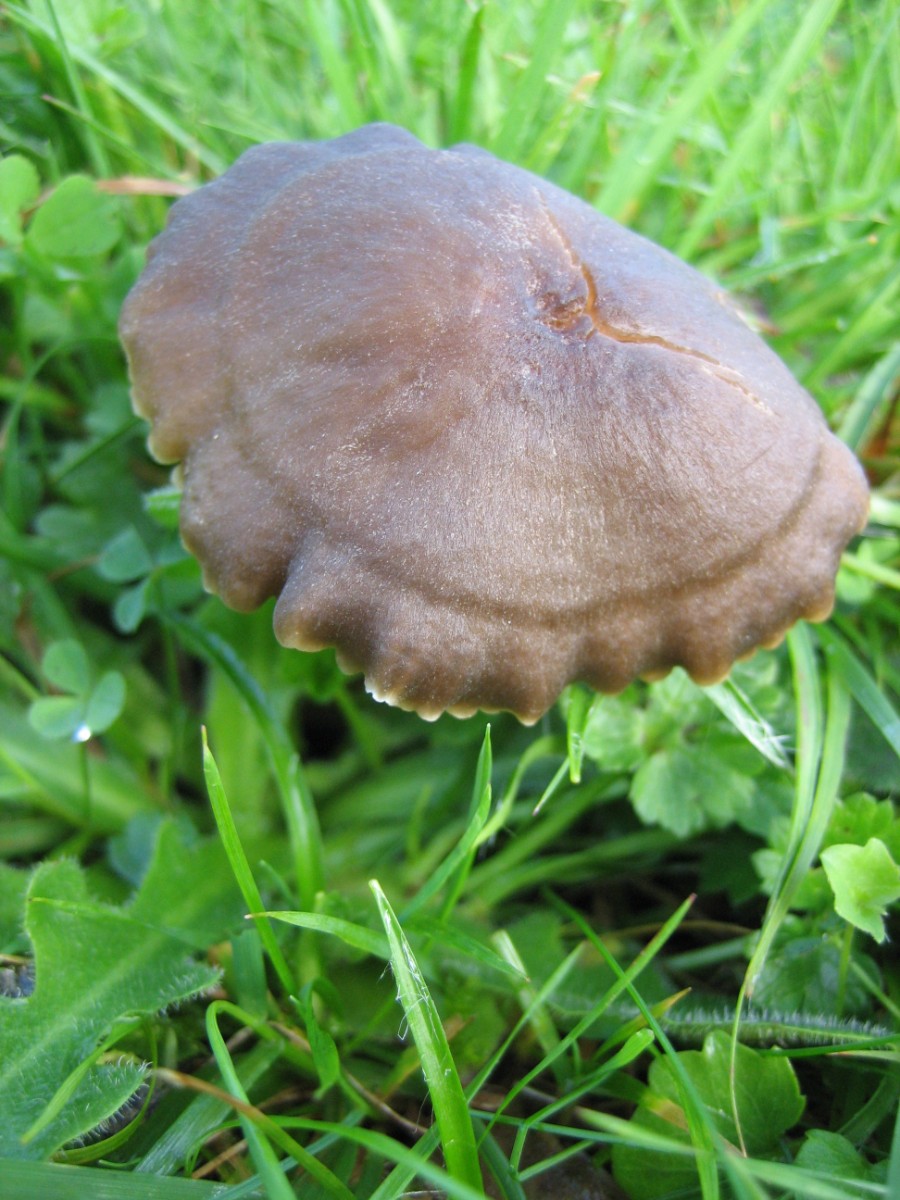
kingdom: Fungi
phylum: Basidiomycota
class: Agaricomycetes
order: Agaricales
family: Hygrophoraceae
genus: Neohygrocybe
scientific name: Neohygrocybe nitrata
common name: stinkende vokshat
